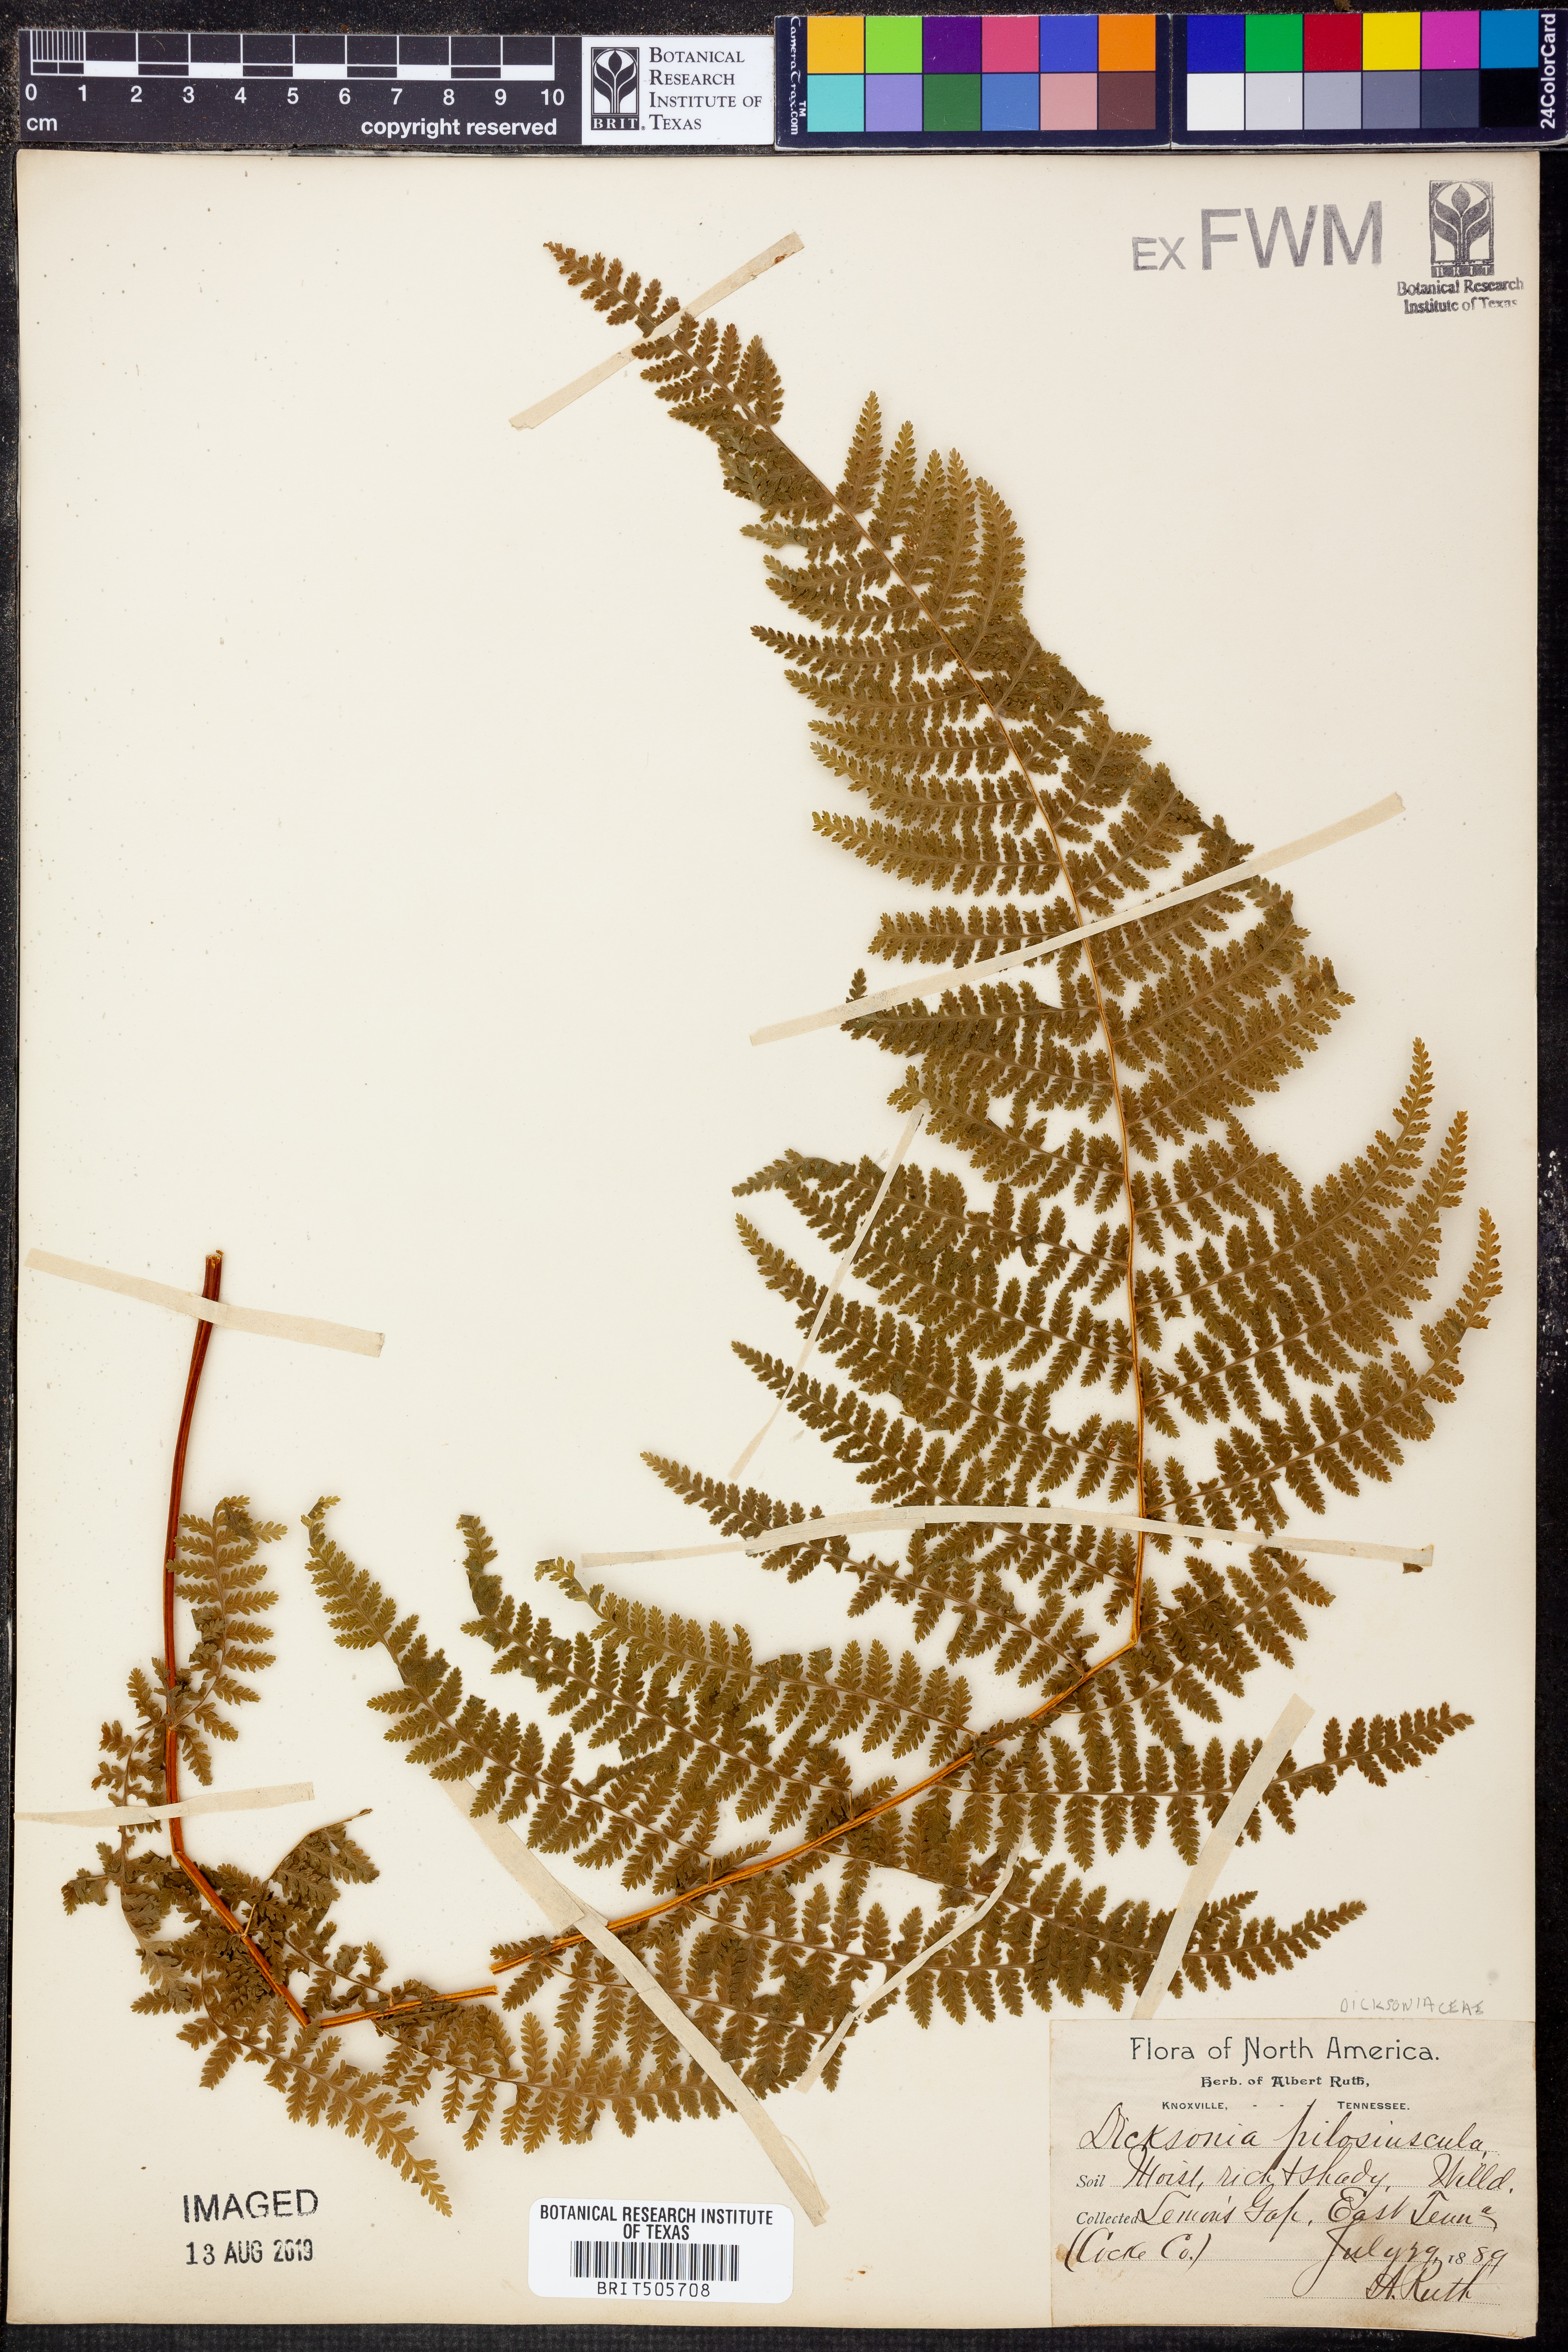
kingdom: Plantae
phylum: Tracheophyta
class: Polypodiopsida
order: Polypodiales
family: Dennstaedtiaceae
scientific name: Dennstaedtiaceae
